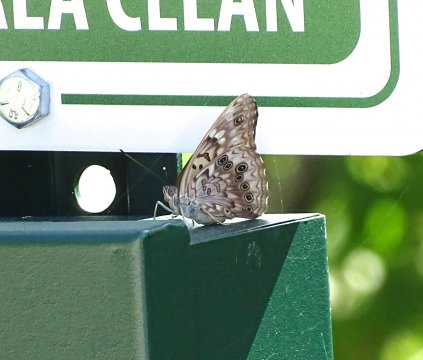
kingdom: Animalia
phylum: Arthropoda
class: Insecta
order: Lepidoptera
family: Nymphalidae
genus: Asterocampa
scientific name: Asterocampa celtis
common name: Hackberry Emperor
